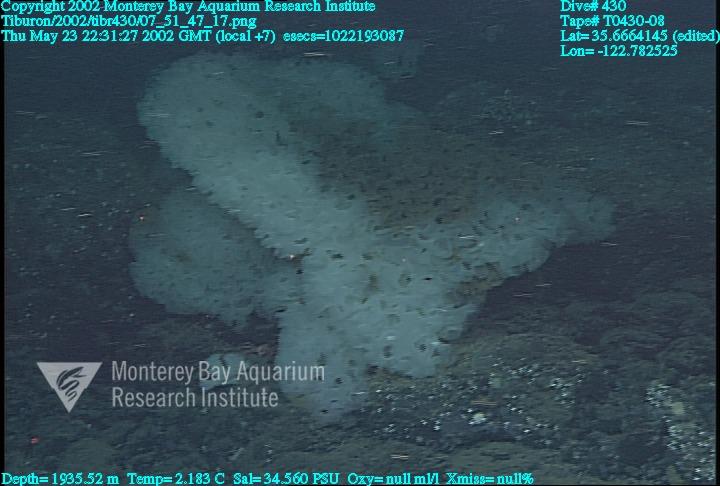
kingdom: Animalia
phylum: Porifera
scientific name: Porifera
